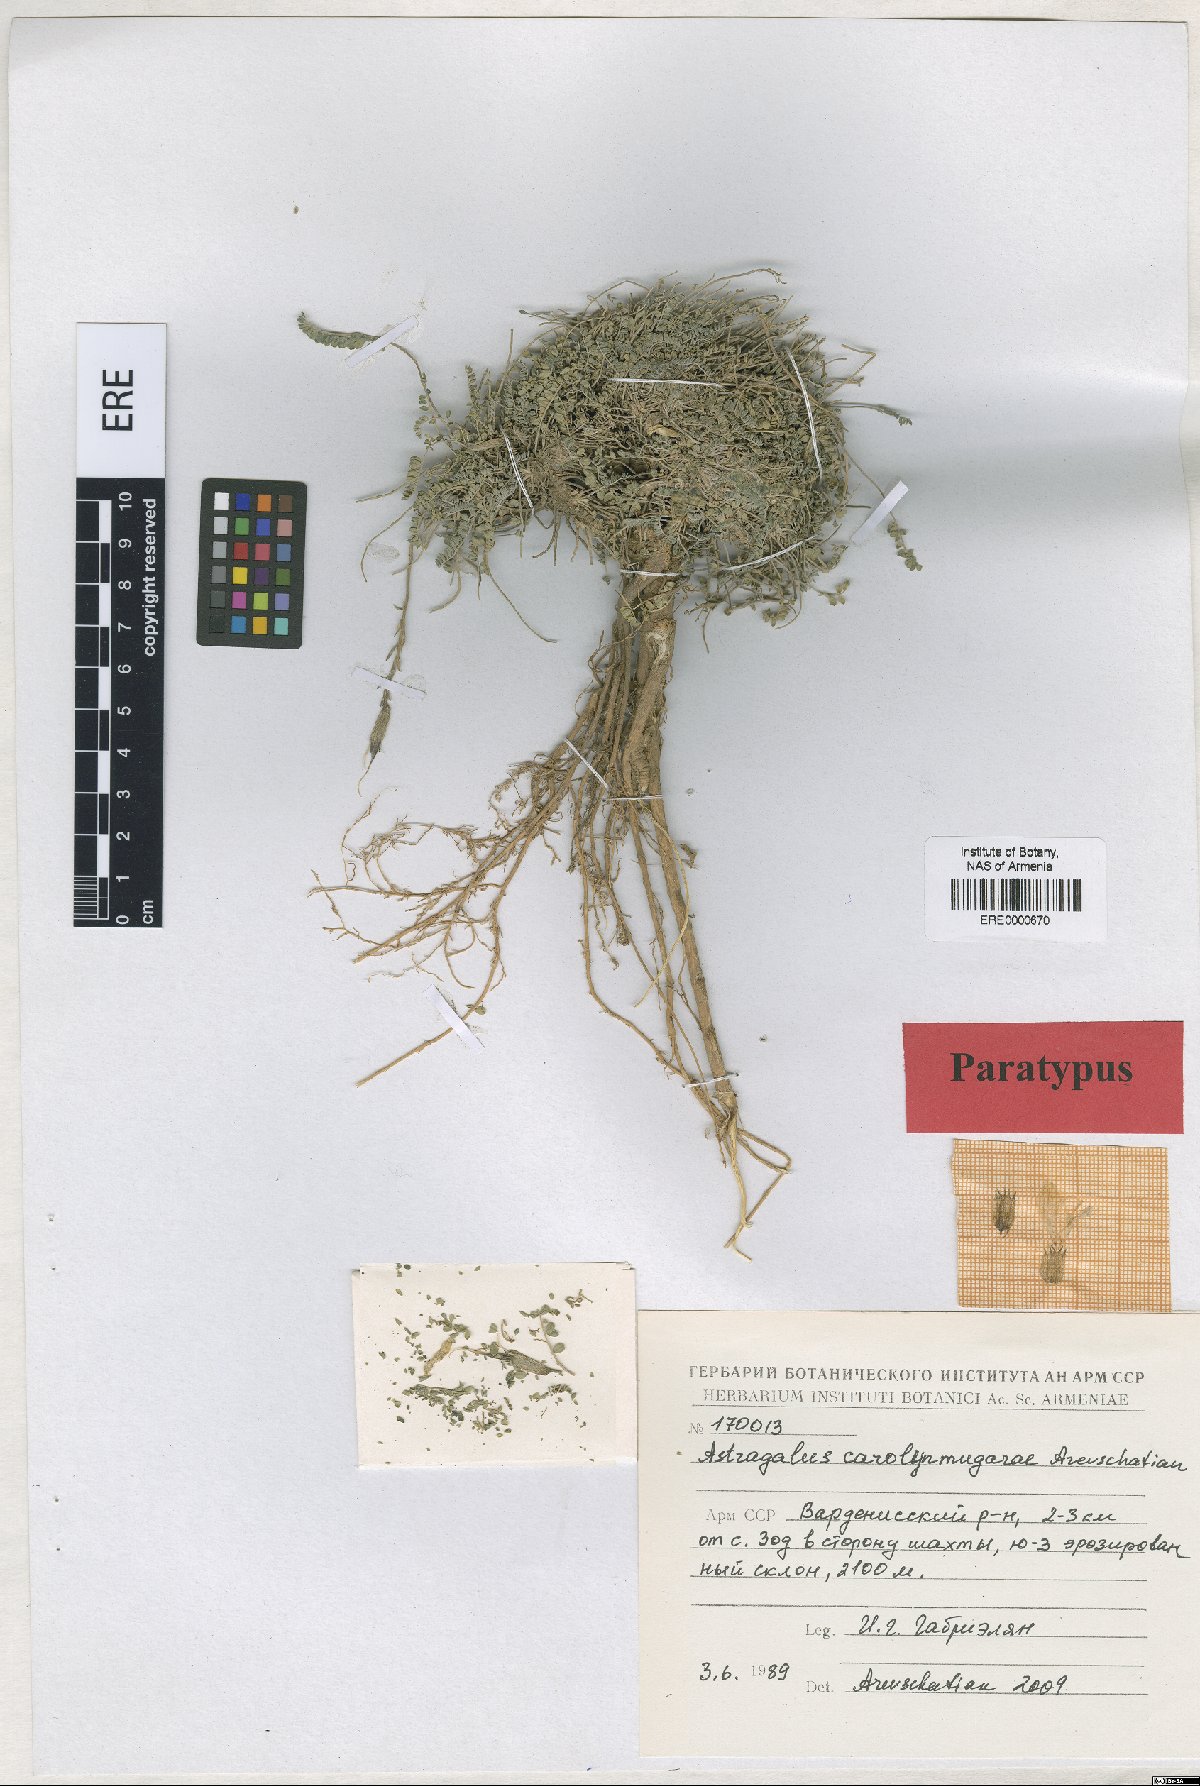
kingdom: Plantae
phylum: Tracheophyta
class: Magnoliopsida
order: Fabales
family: Fabaceae
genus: Astragalus
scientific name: Astragalus carolynmugariae
